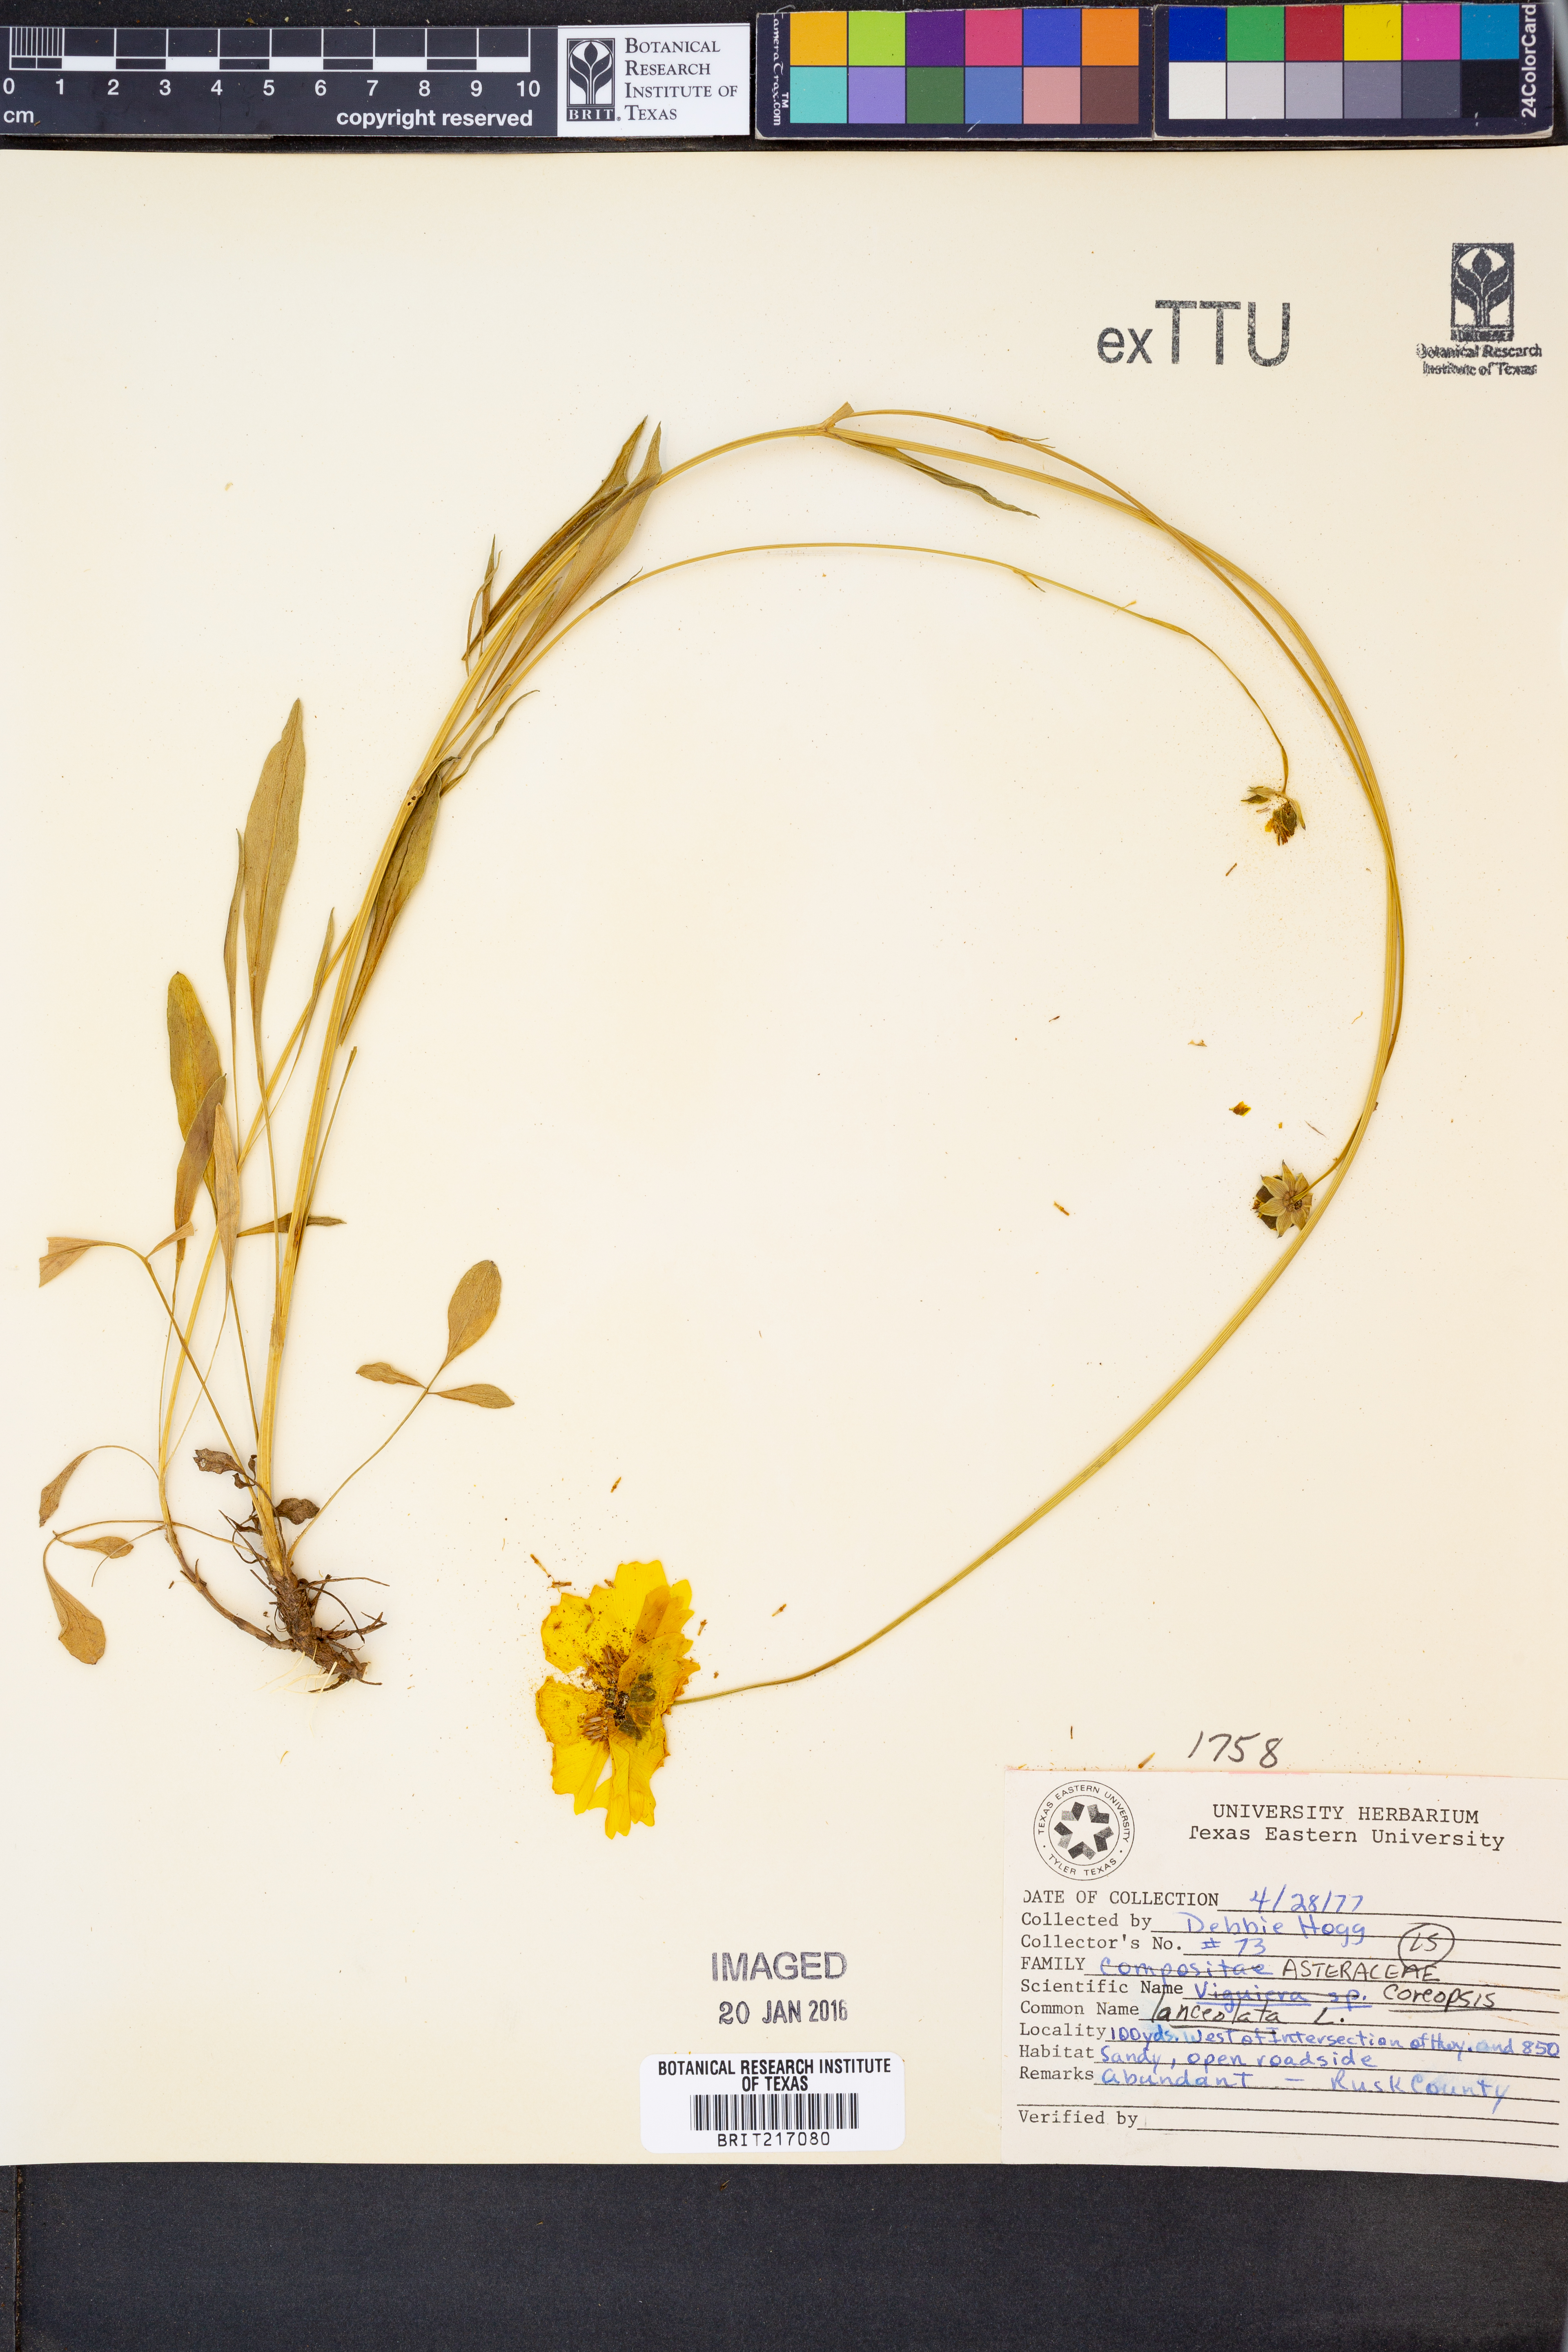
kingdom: Plantae
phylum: Tracheophyta
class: Magnoliopsida
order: Asterales
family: Asteraceae
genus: Coreopsis
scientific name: Coreopsis lanceolata
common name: Garden coreopsis
